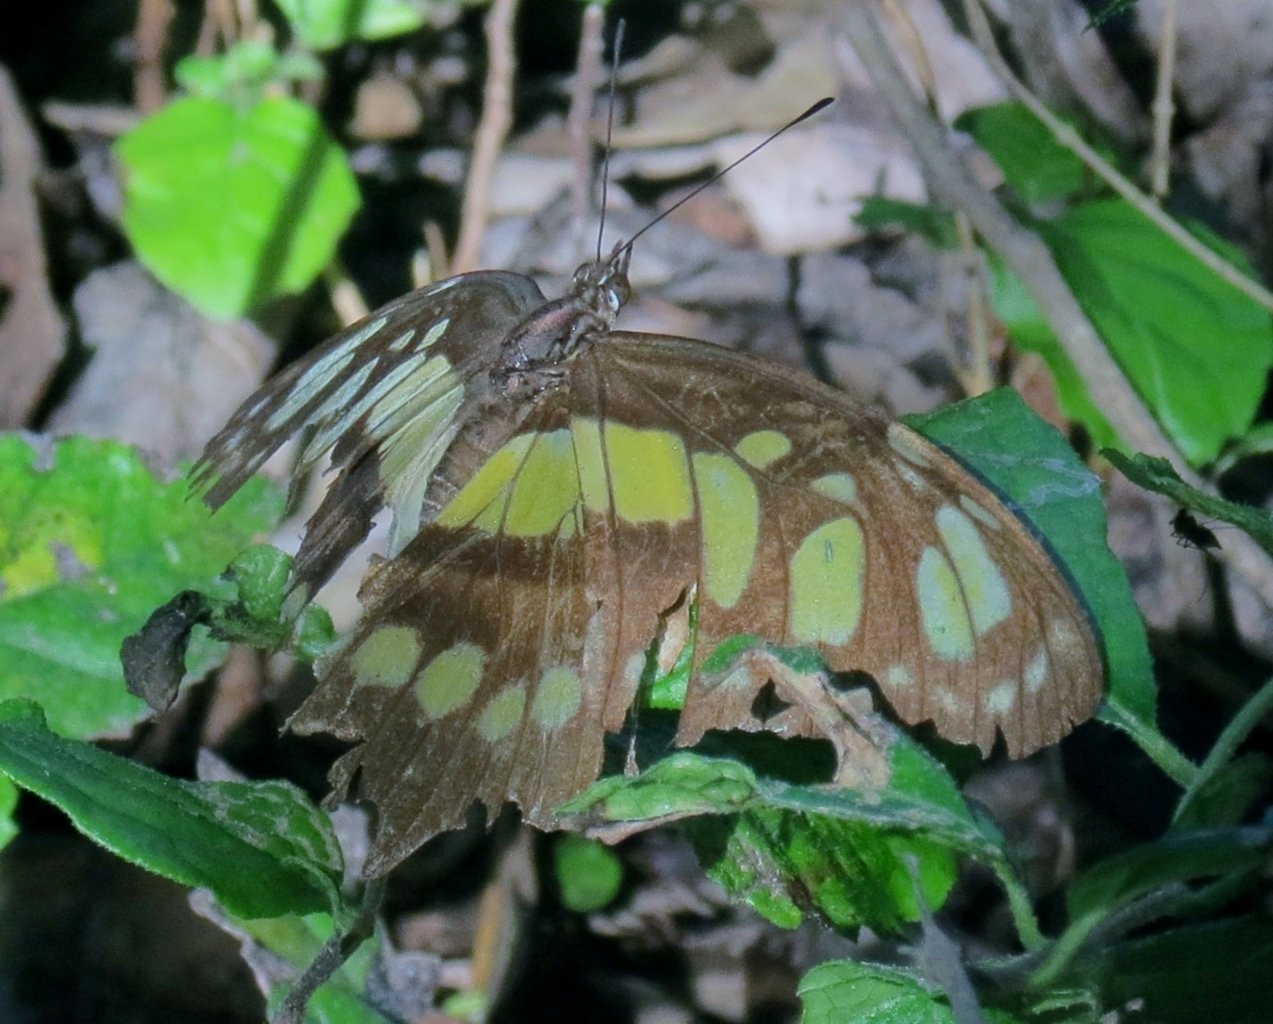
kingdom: Animalia
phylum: Arthropoda
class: Insecta
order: Lepidoptera
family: Nymphalidae
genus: Siproeta
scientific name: Siproeta stelenes
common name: Malachite
